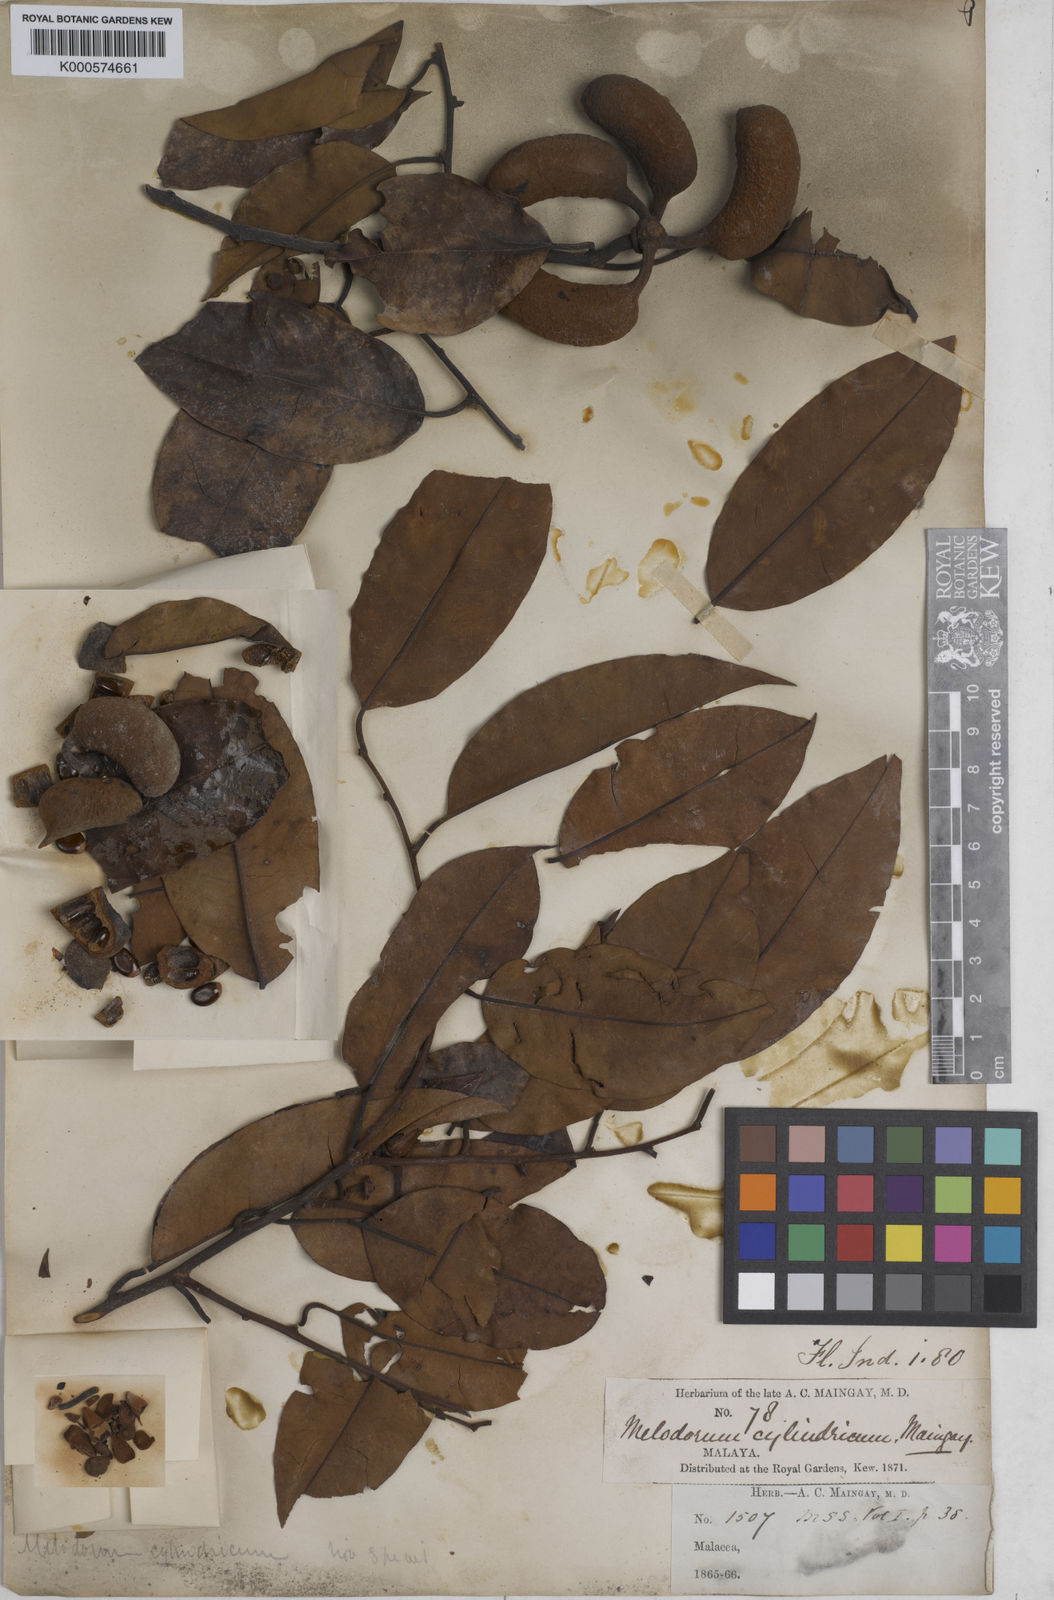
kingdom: Plantae
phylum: Tracheophyta
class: Magnoliopsida
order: Magnoliales
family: Annonaceae
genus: Pyramidanthe
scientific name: Pyramidanthe
